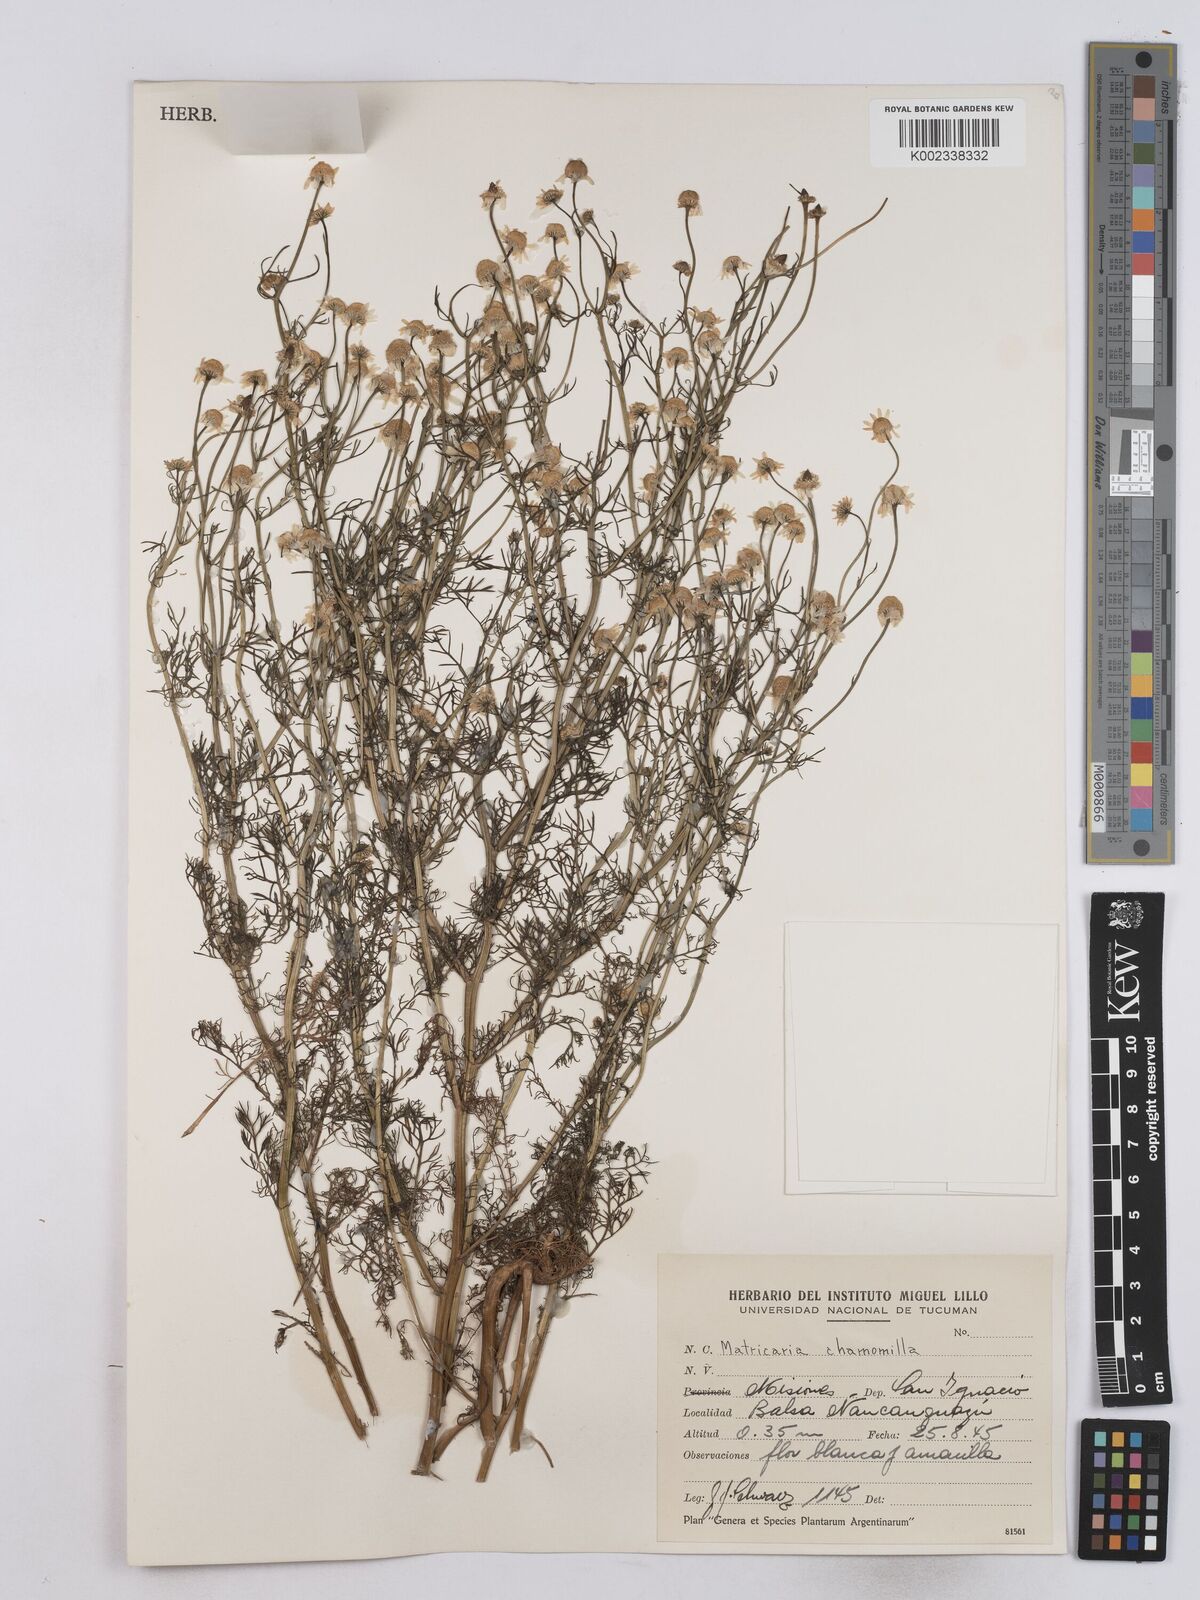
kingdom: Plantae
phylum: Tracheophyta
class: Magnoliopsida
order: Asterales
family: Asteraceae
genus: Matricaria
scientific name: Matricaria chamomilla
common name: Scented mayweed
